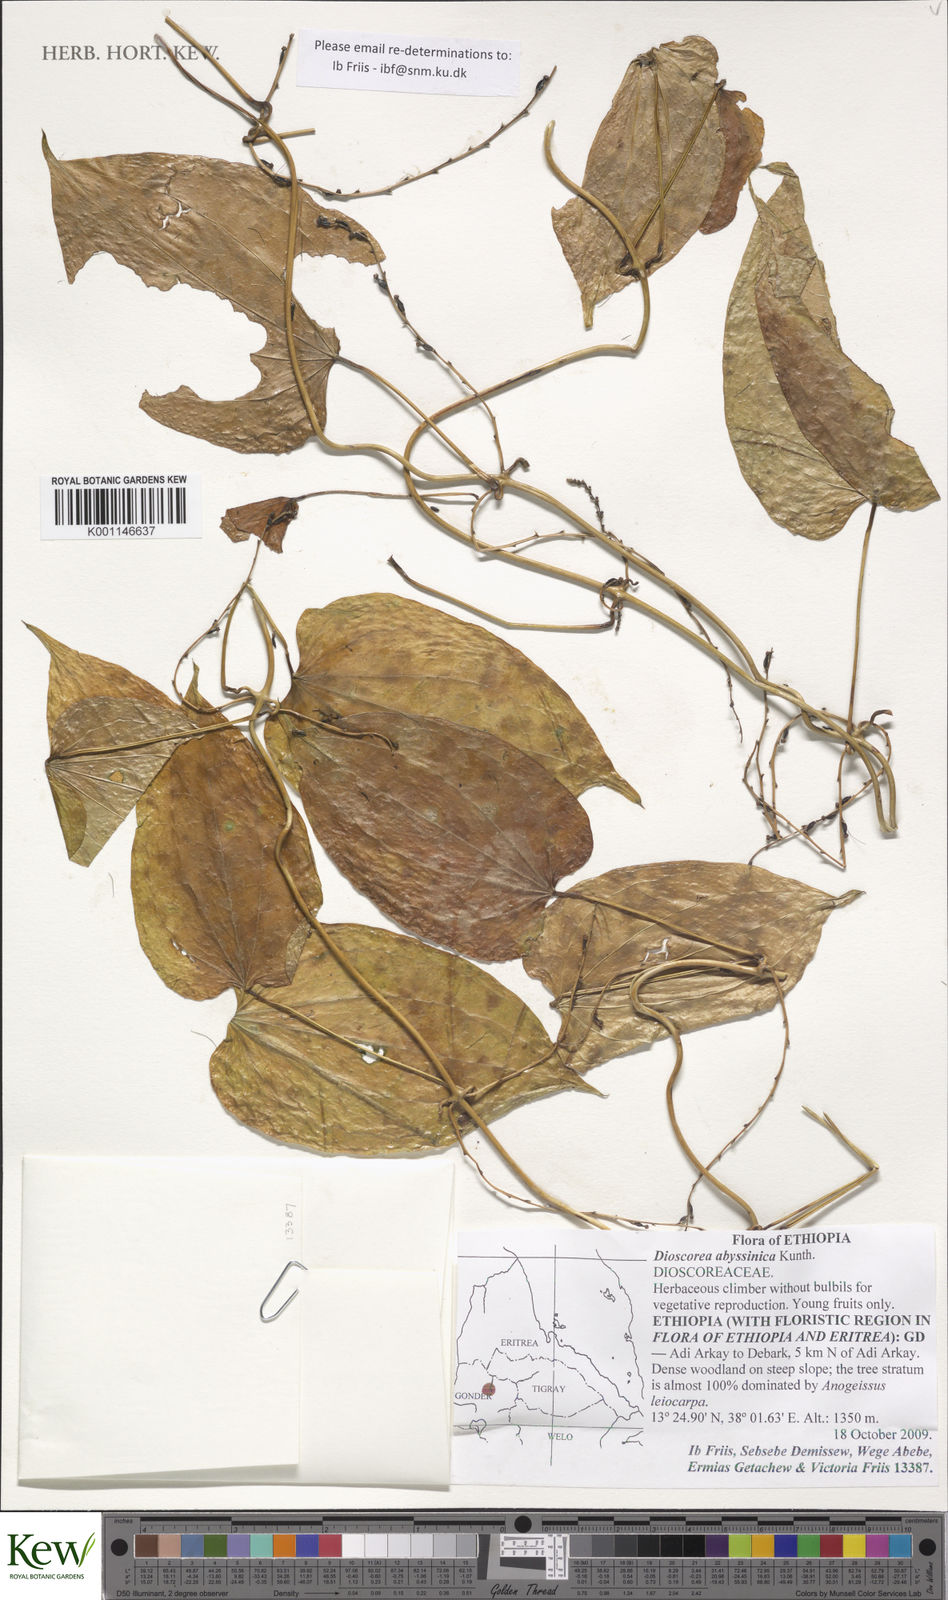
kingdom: Plantae
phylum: Tracheophyta
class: Liliopsida
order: Dioscoreales
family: Dioscoreaceae
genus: Dioscorea
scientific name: Dioscorea abyssinica
